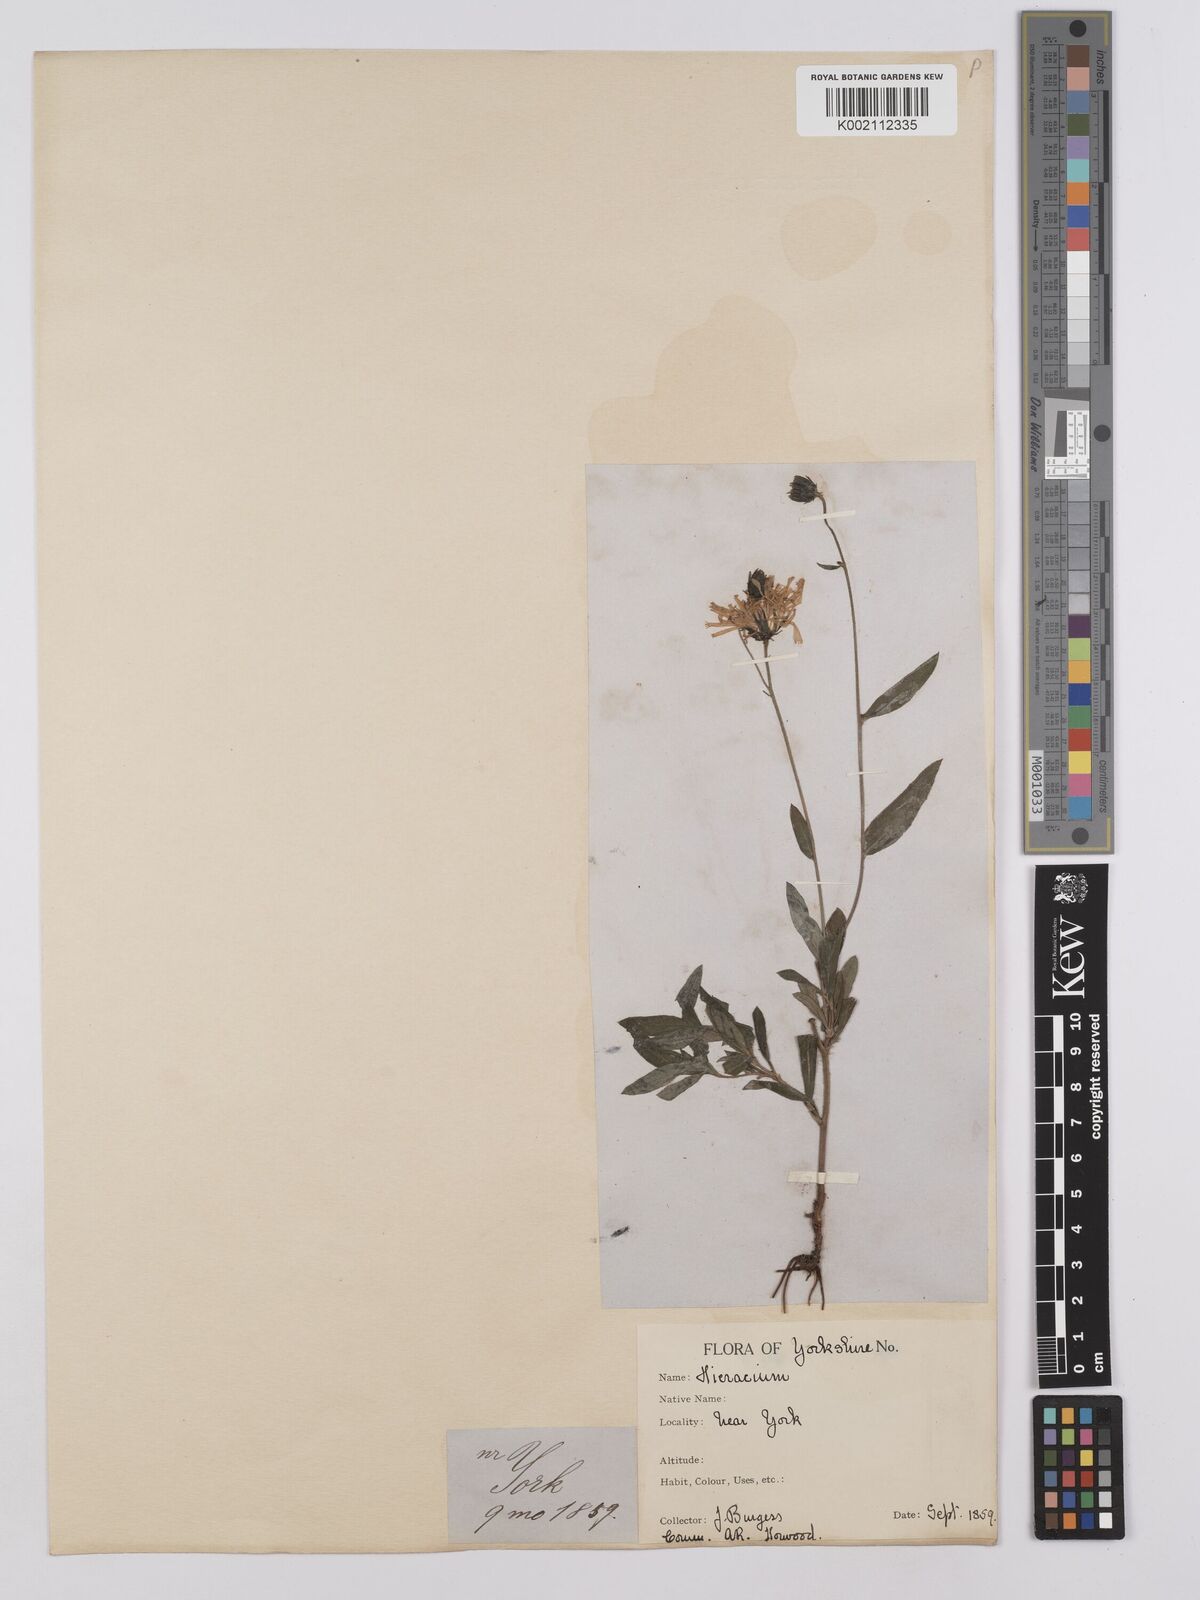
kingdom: Plantae
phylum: Tracheophyta
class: Magnoliopsida
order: Asterales
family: Asteraceae
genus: Hieracium
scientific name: Hieracium umbellatum
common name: Northern hawkweed
